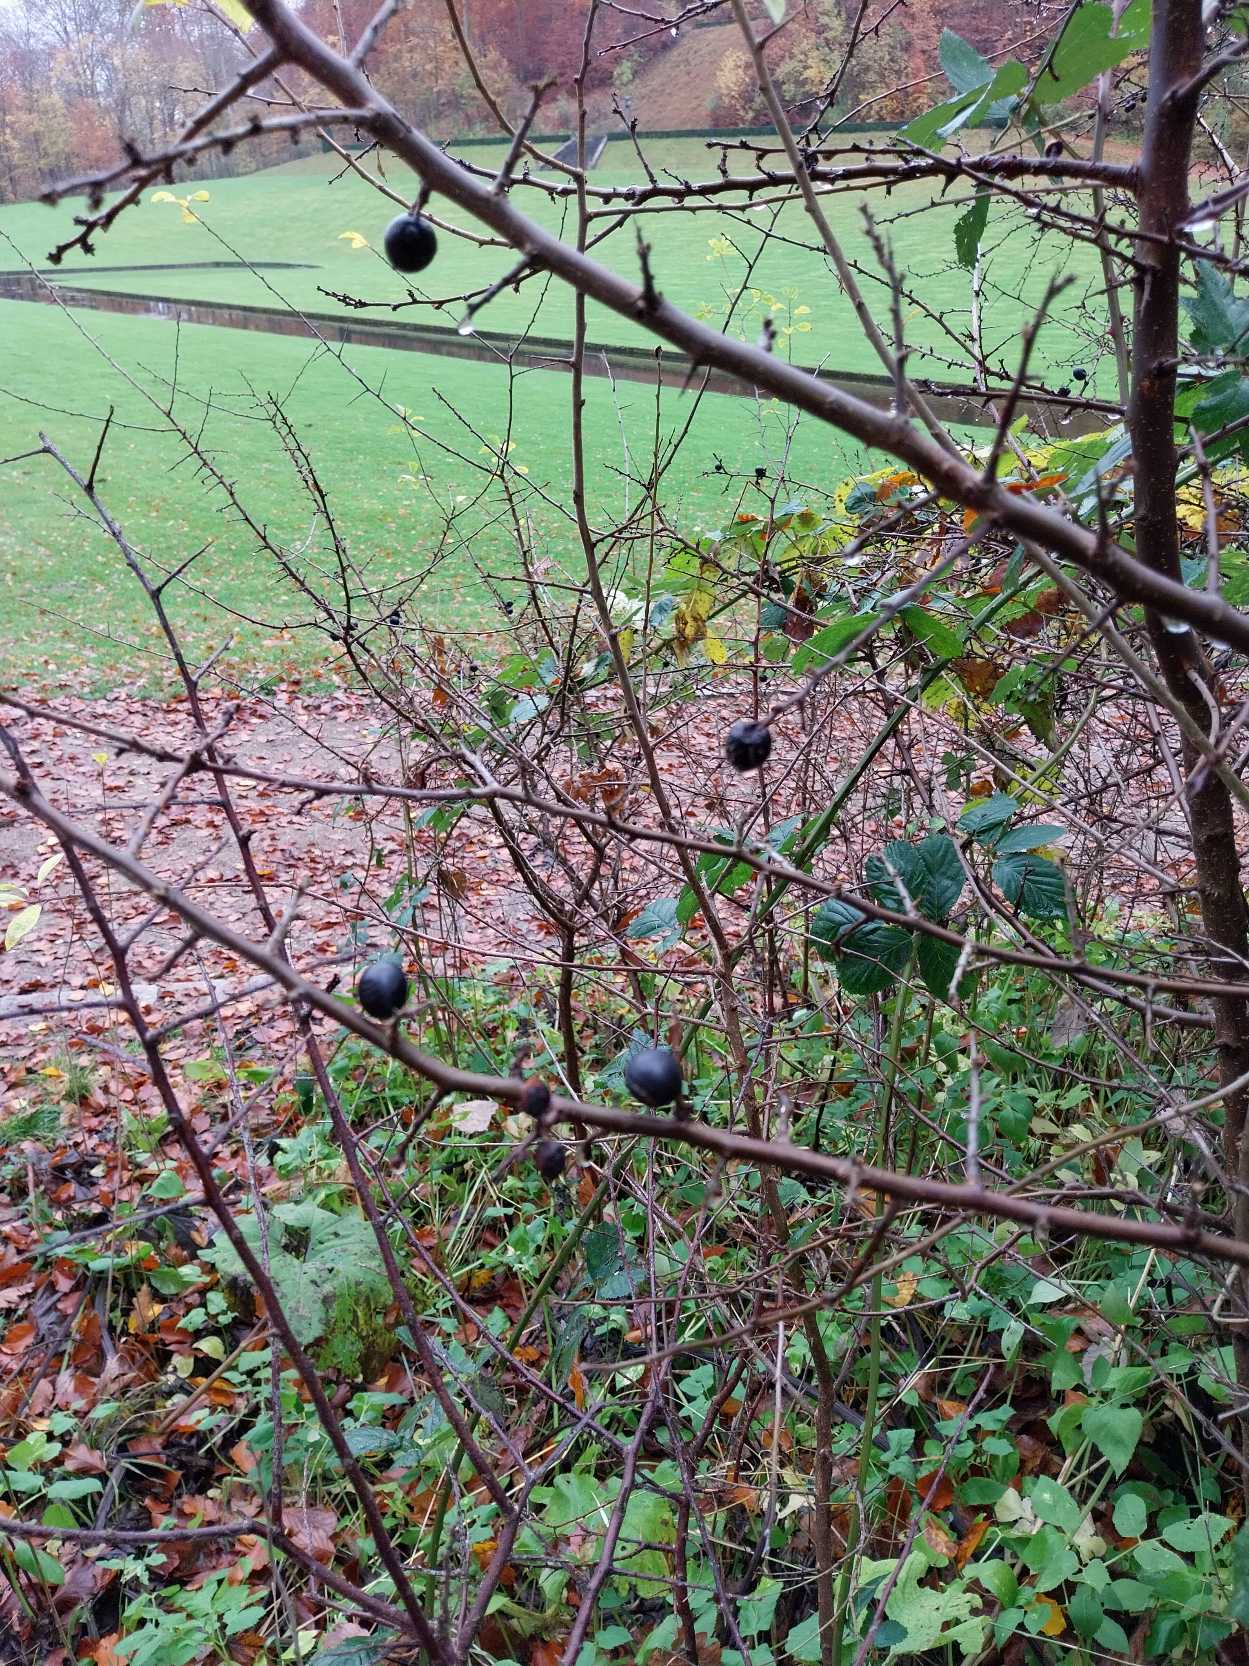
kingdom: Plantae
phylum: Tracheophyta
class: Magnoliopsida
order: Rosales
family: Rosaceae
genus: Prunus
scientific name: Prunus spinosa
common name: Slåen
